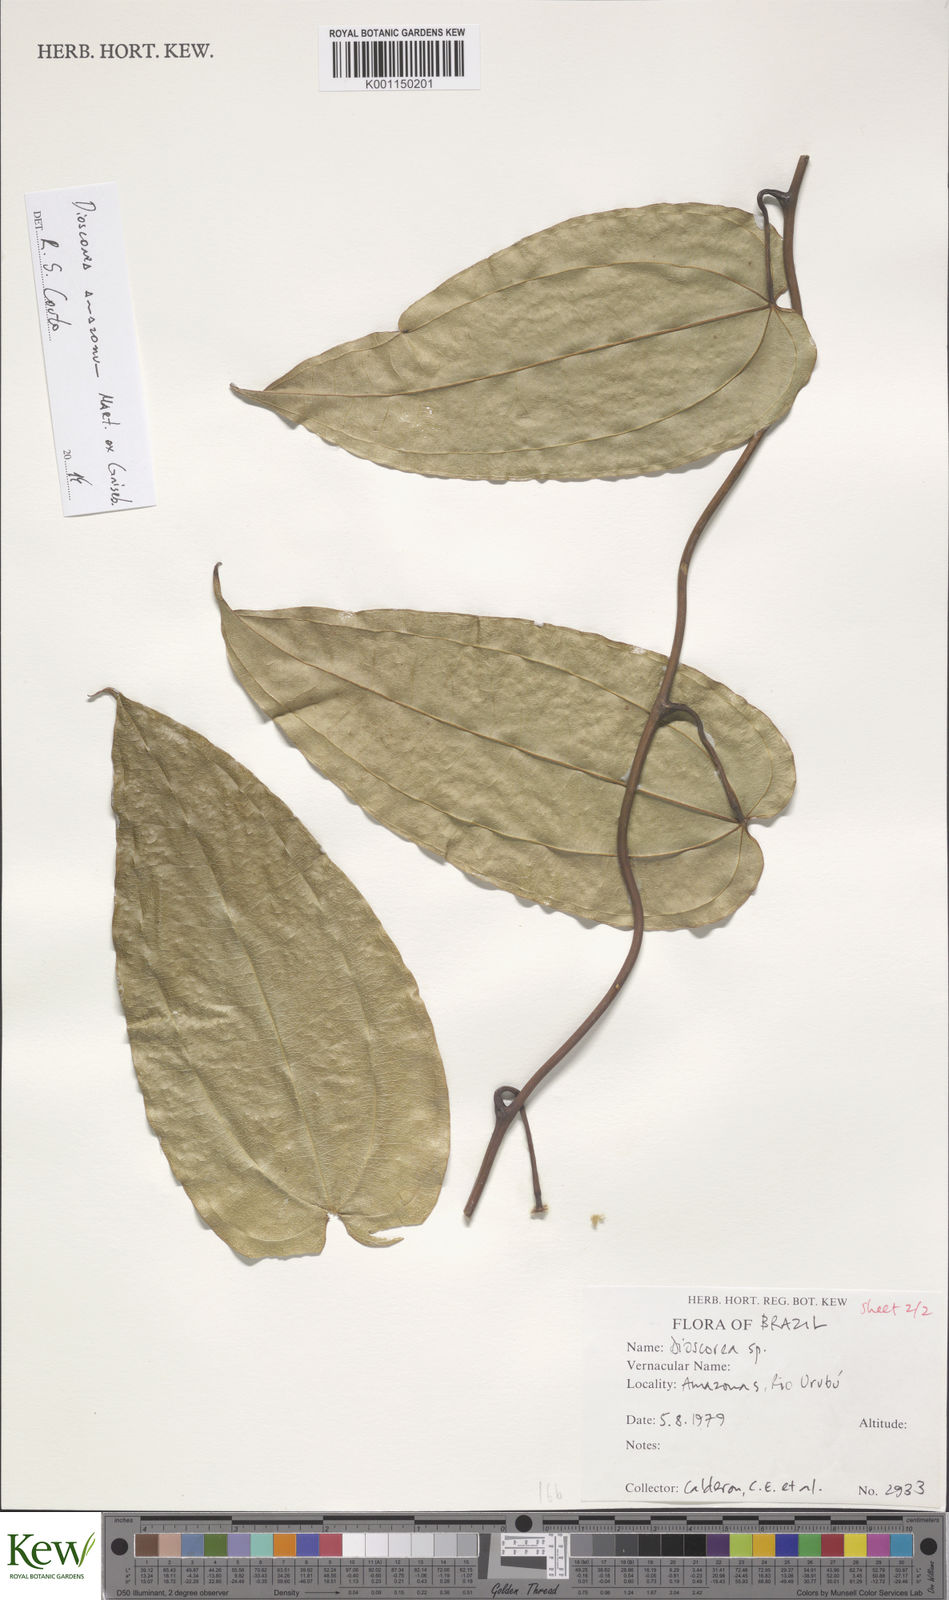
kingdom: Plantae
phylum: Tracheophyta
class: Liliopsida
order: Dioscoreales
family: Dioscoreaceae
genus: Dioscorea
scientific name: Dioscorea amazonum
